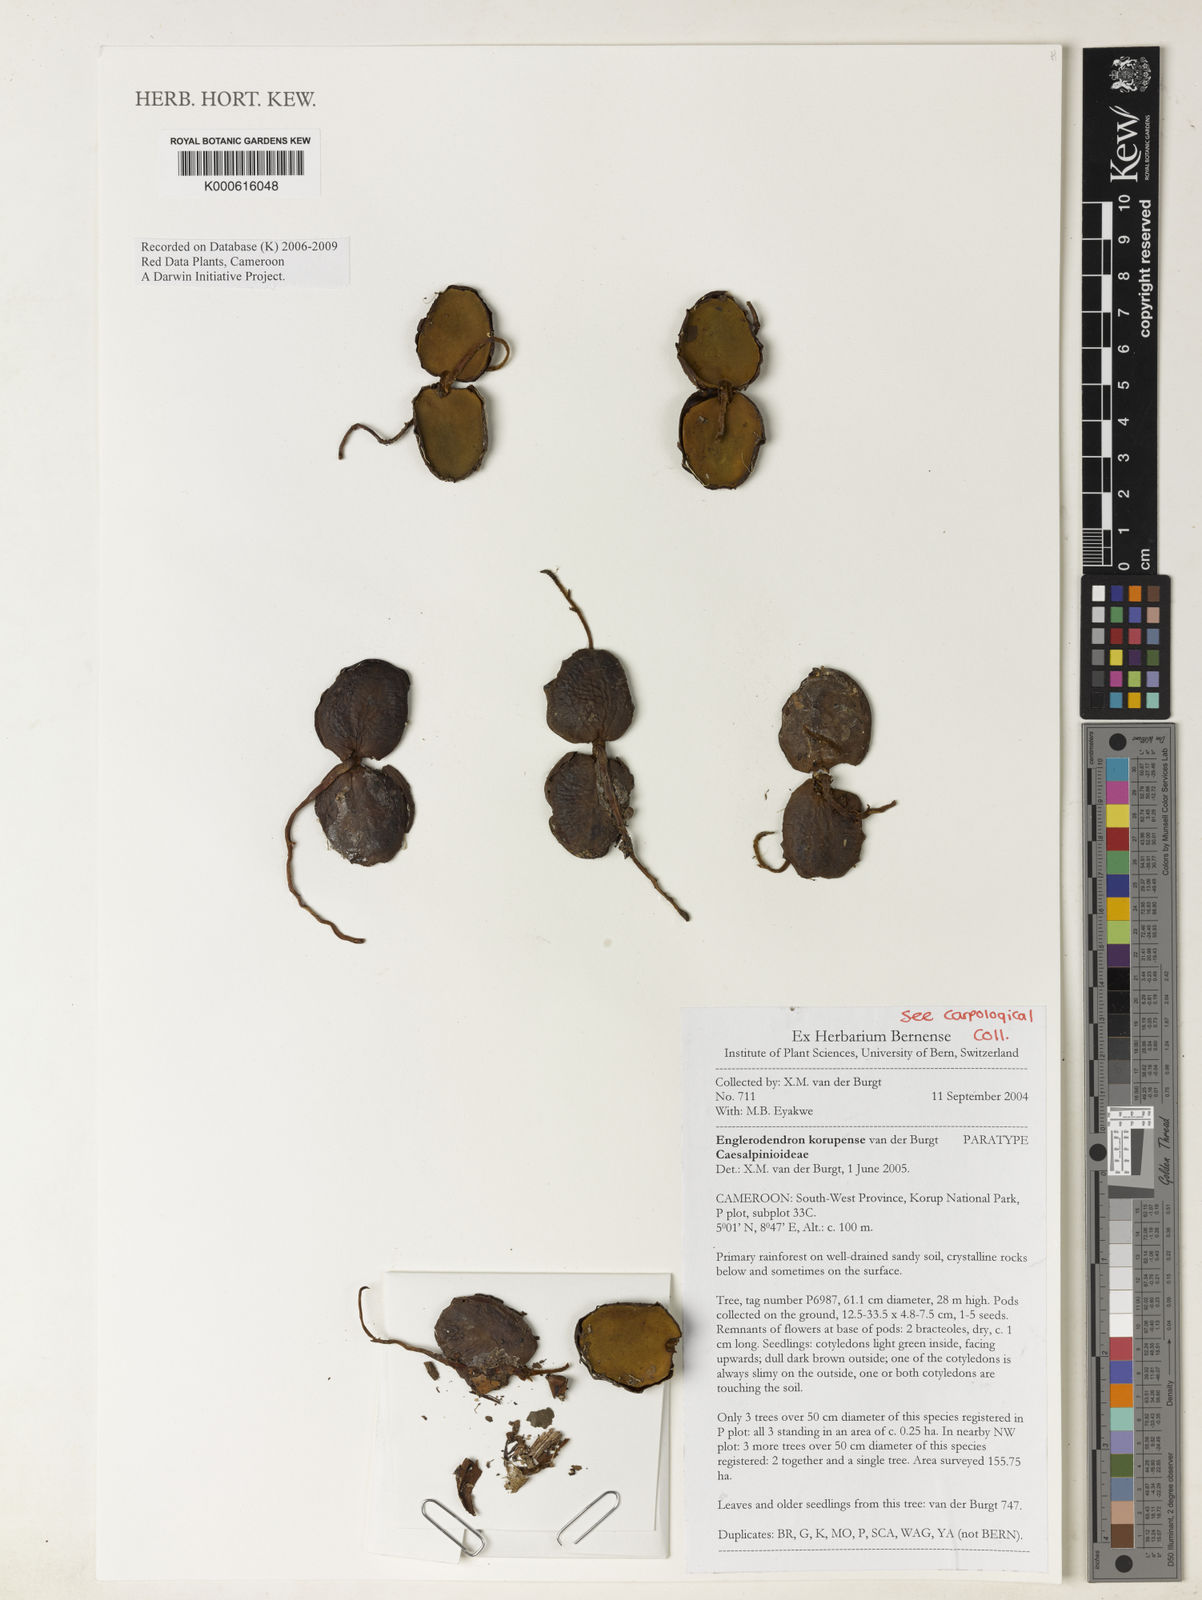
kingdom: Plantae
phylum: Tracheophyta
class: Magnoliopsida
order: Fabales
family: Fabaceae
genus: Englerodendron
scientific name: Englerodendron korupense
